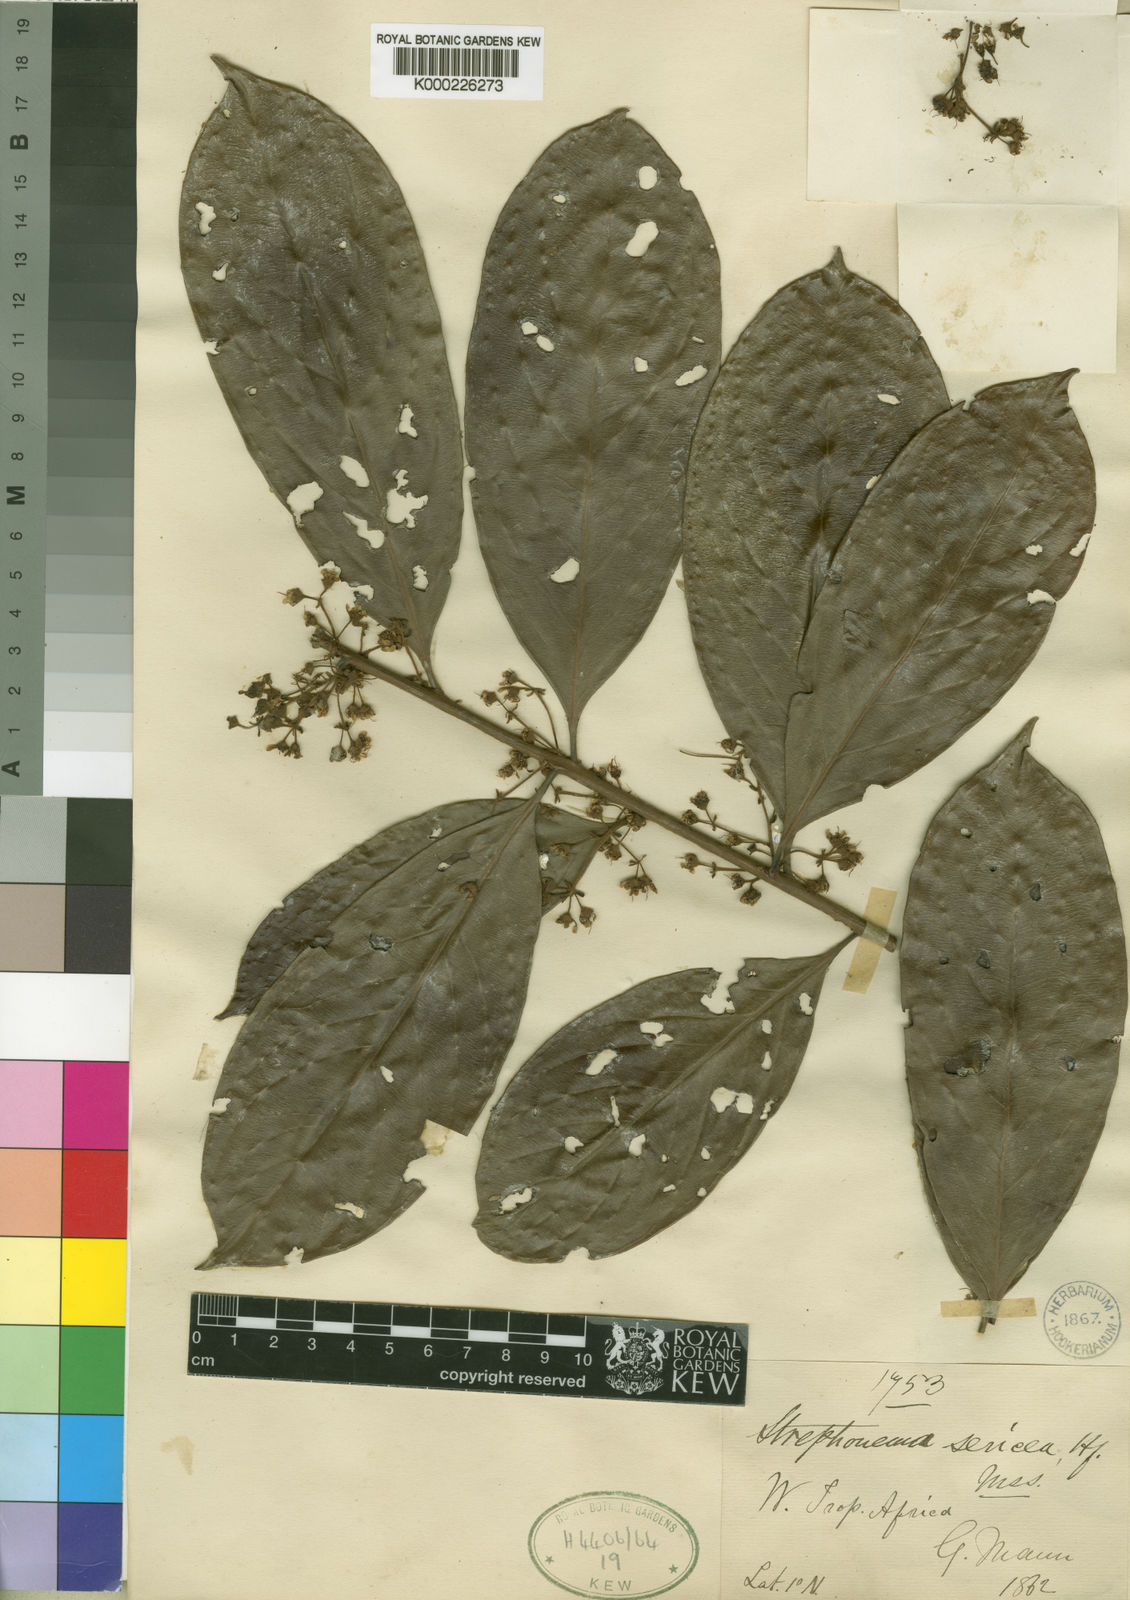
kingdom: Plantae
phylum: Tracheophyta
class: Magnoliopsida
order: Myrtales
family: Combretaceae
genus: Strephonema
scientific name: Strephonema sericeum
